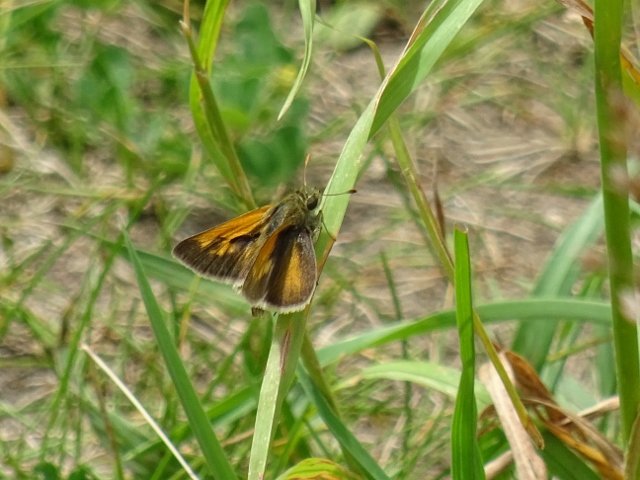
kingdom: Animalia
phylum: Arthropoda
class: Insecta
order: Lepidoptera
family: Hesperiidae
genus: Polites
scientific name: Polites themistocles
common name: Tawny-edged Skipper
